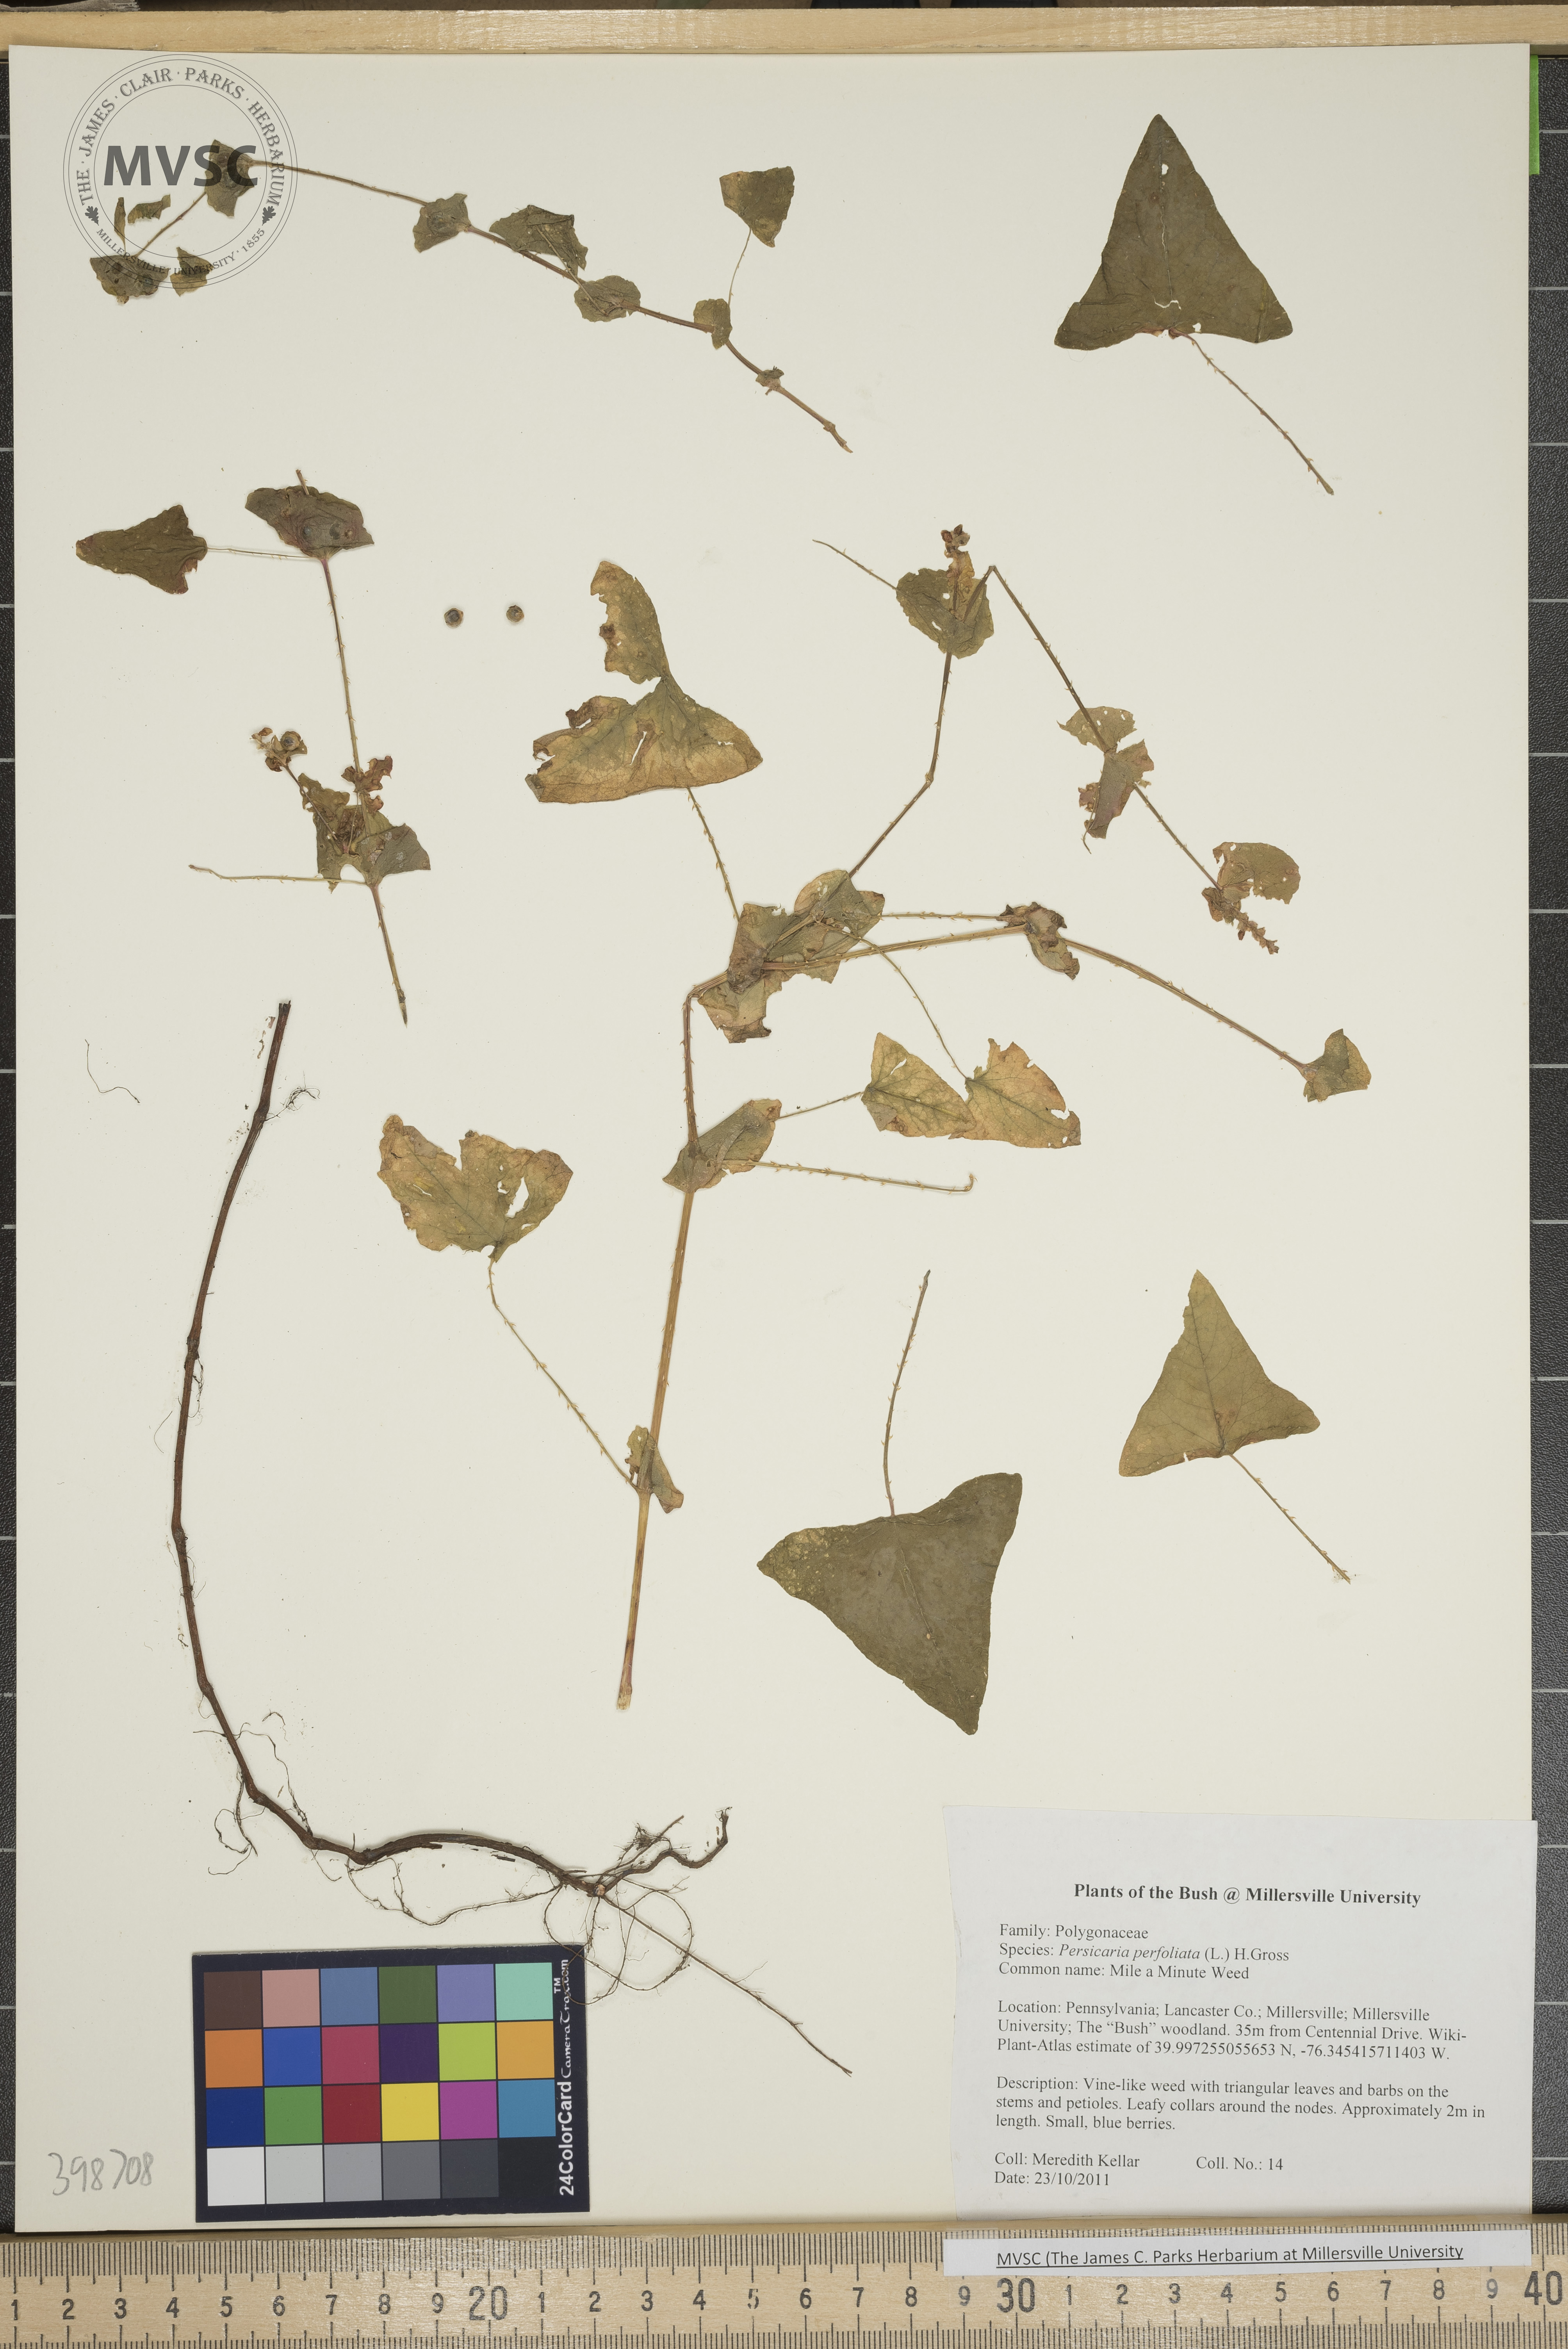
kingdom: Plantae
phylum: Tracheophyta
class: Magnoliopsida
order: Caryophyllales
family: Polygonaceae
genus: Persicaria
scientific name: Persicaria perfoliata
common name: Mile-a-minute weed
